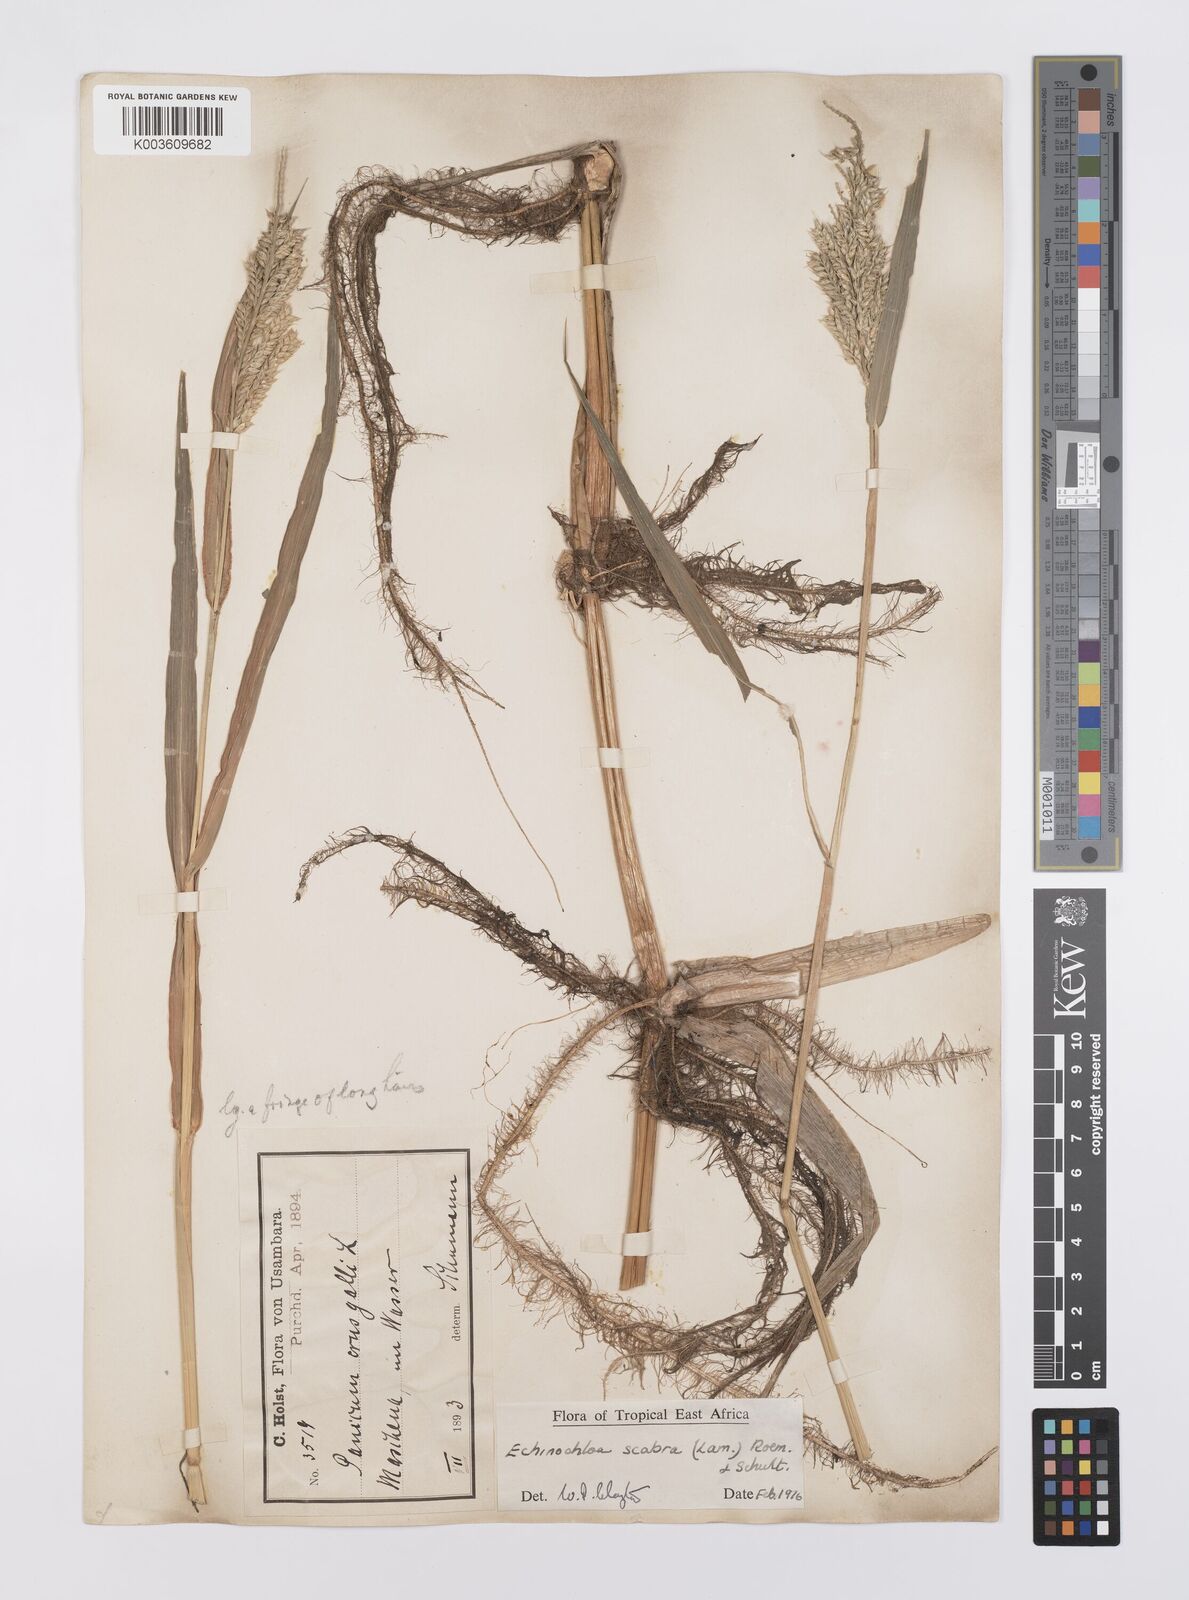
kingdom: Plantae
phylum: Tracheophyta
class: Liliopsida
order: Poales
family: Poaceae
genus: Echinochloa
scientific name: Echinochloa stagnina
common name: Burgu grass
